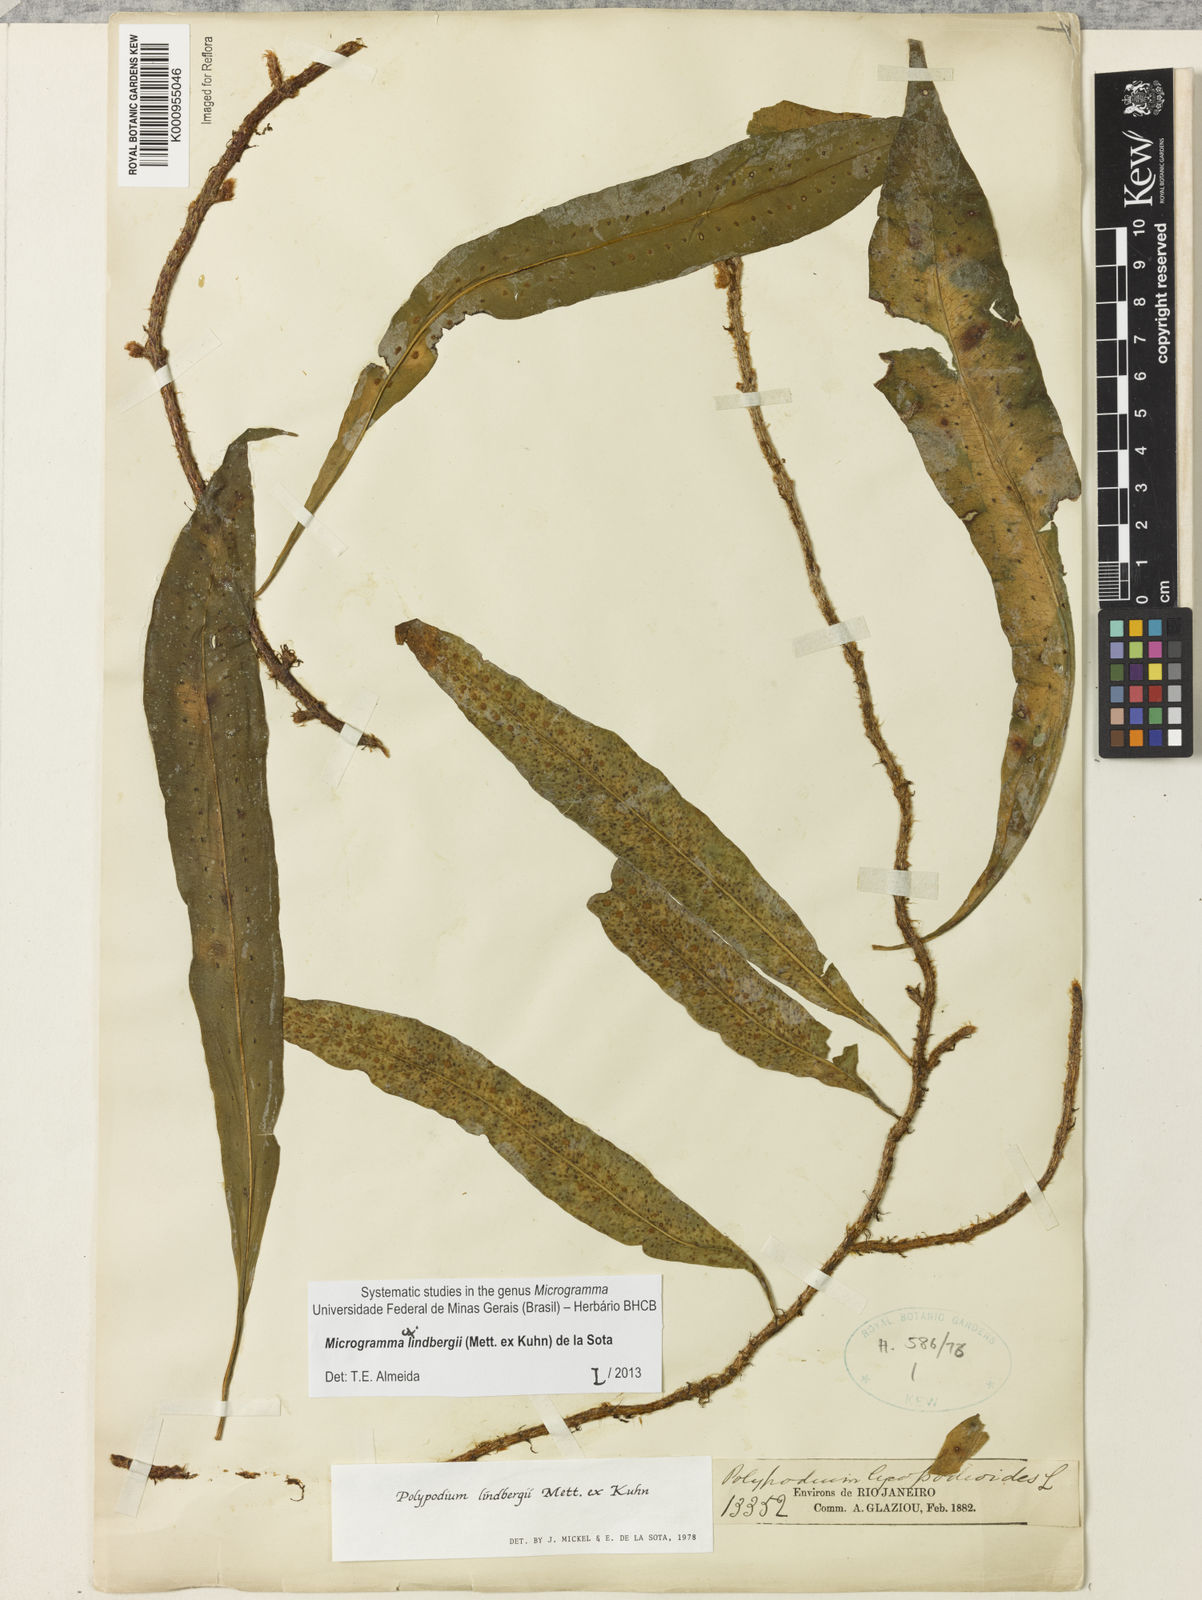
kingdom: Plantae
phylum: Tracheophyta
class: Polypodiopsida
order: Polypodiales
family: Polypodiaceae
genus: Microgramma
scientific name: Microgramma
